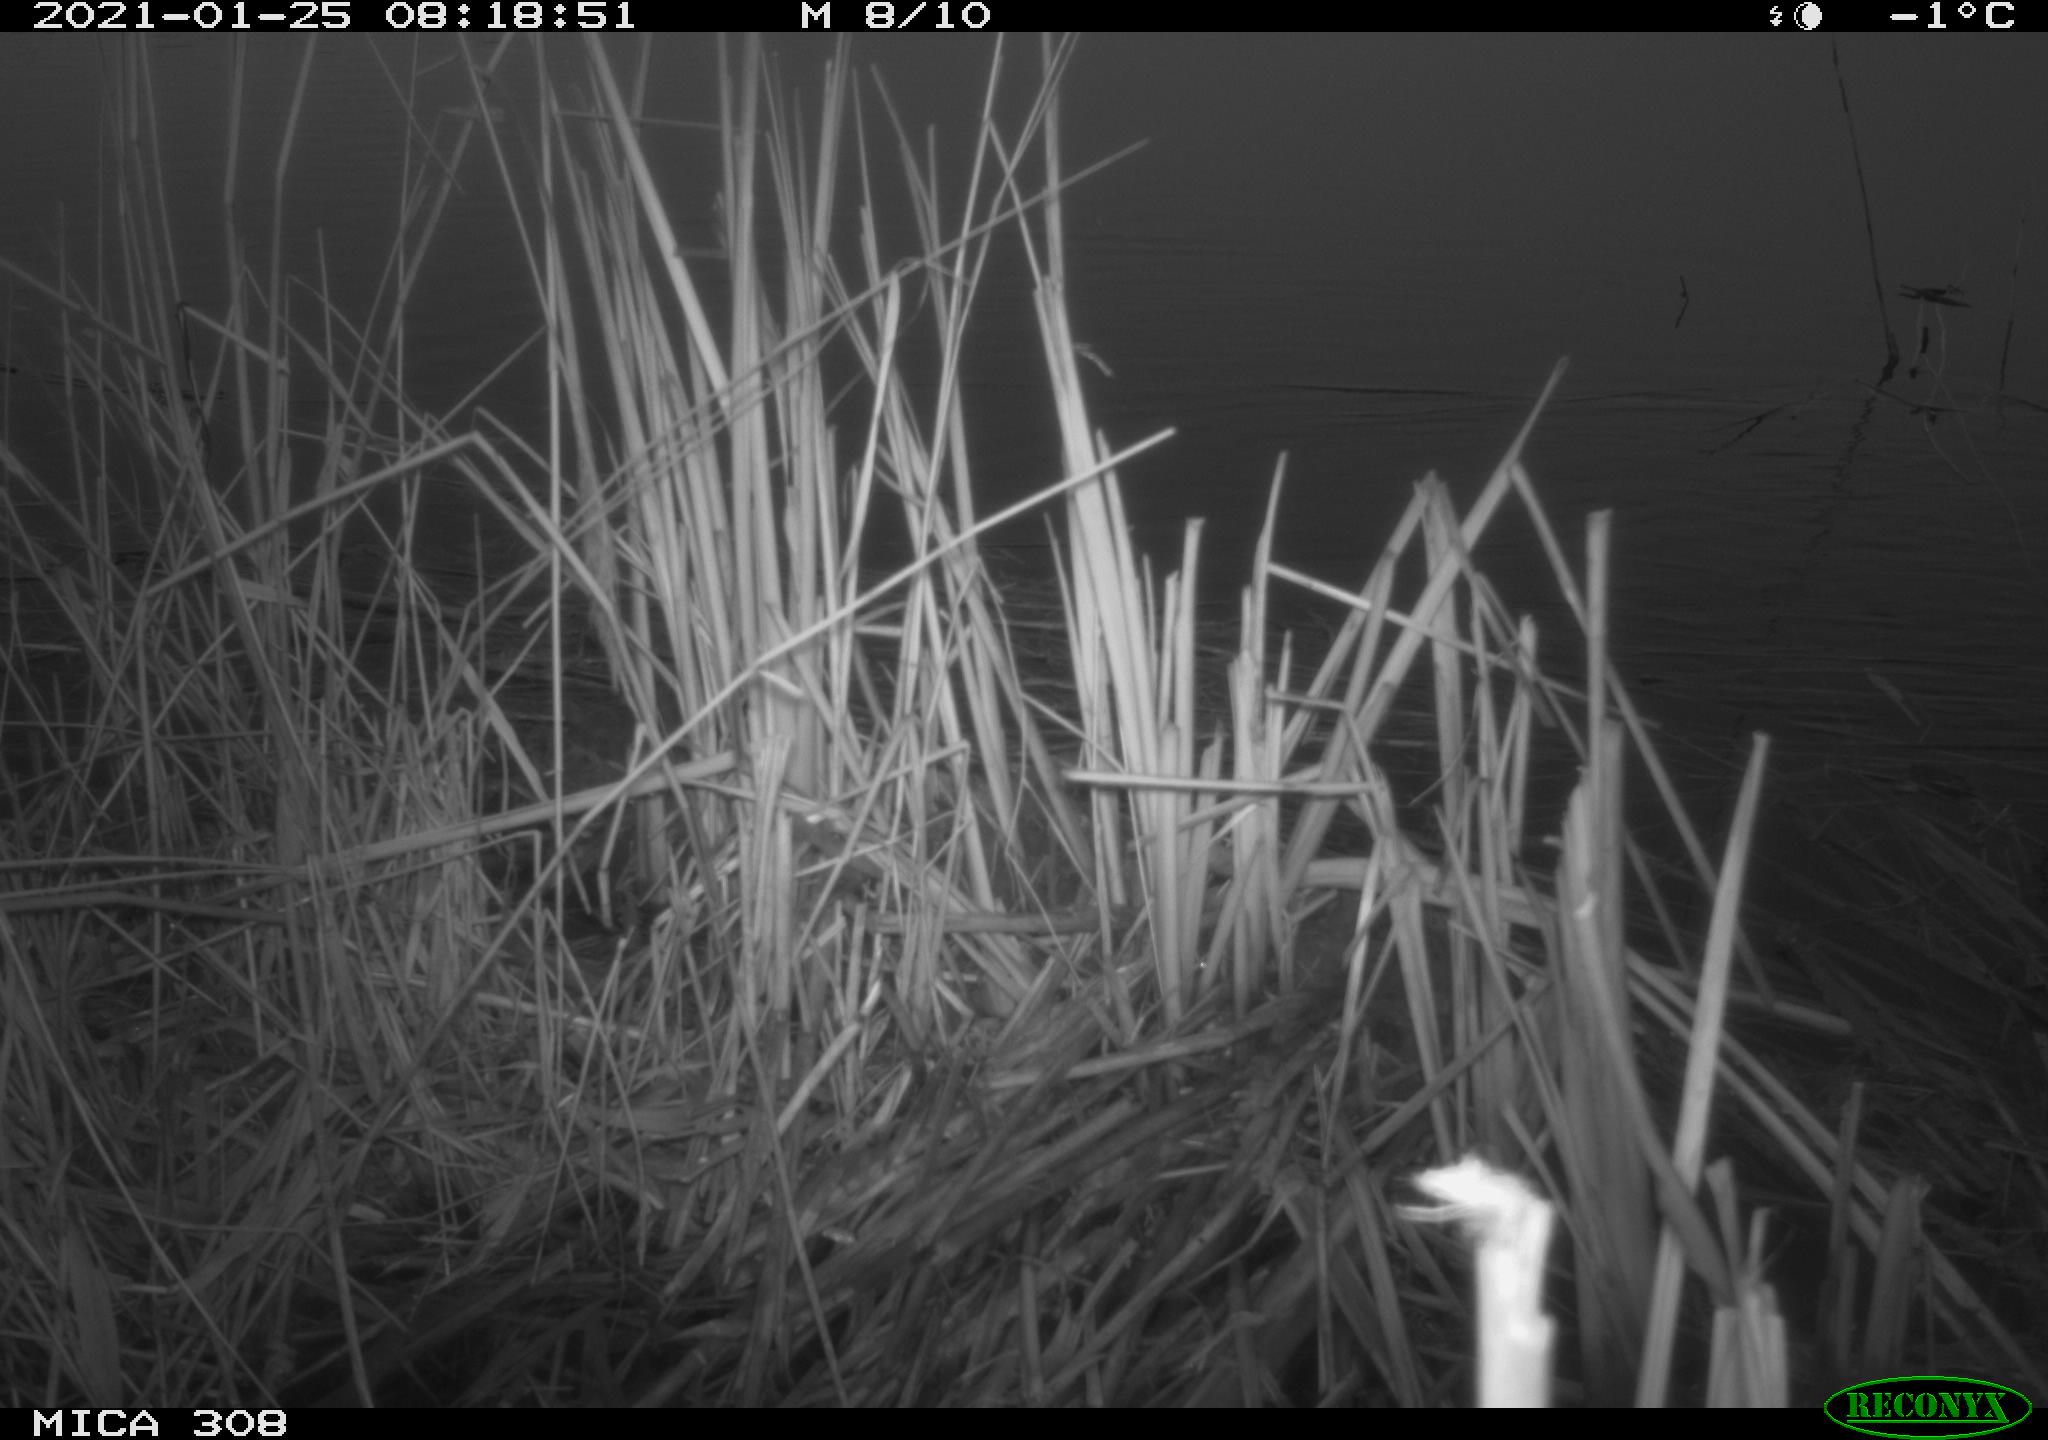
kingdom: Animalia
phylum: Chordata
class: Aves
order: Gruiformes
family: Rallidae
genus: Gallinula
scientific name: Gallinula chloropus
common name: Common moorhen
